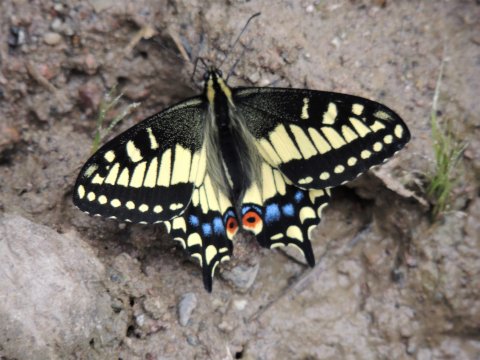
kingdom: Animalia
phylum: Arthropoda
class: Insecta
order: Lepidoptera
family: Papilionidae
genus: Papilio
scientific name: Papilio zelicaon
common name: Anise Swallowtail
